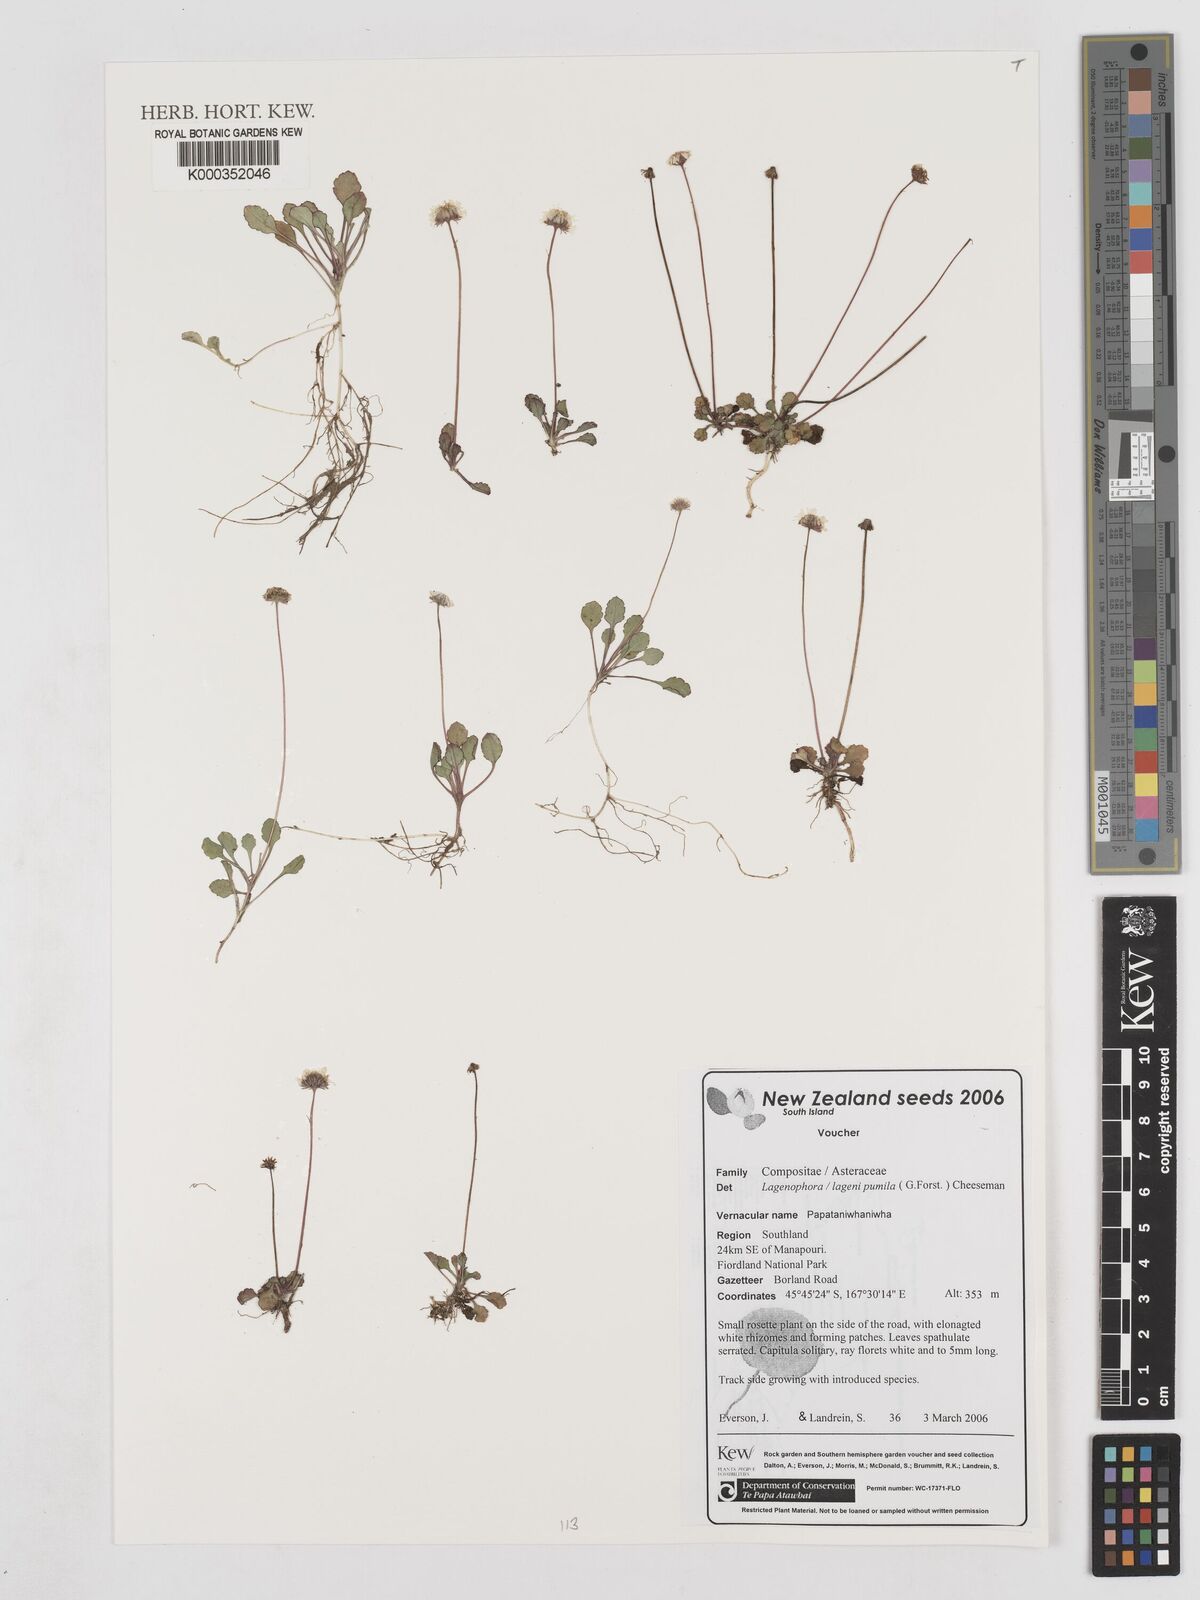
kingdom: Plantae
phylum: Tracheophyta
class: Magnoliopsida
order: Asterales
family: Asteraceae
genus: Lagenophora
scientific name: Lagenophora pumila
